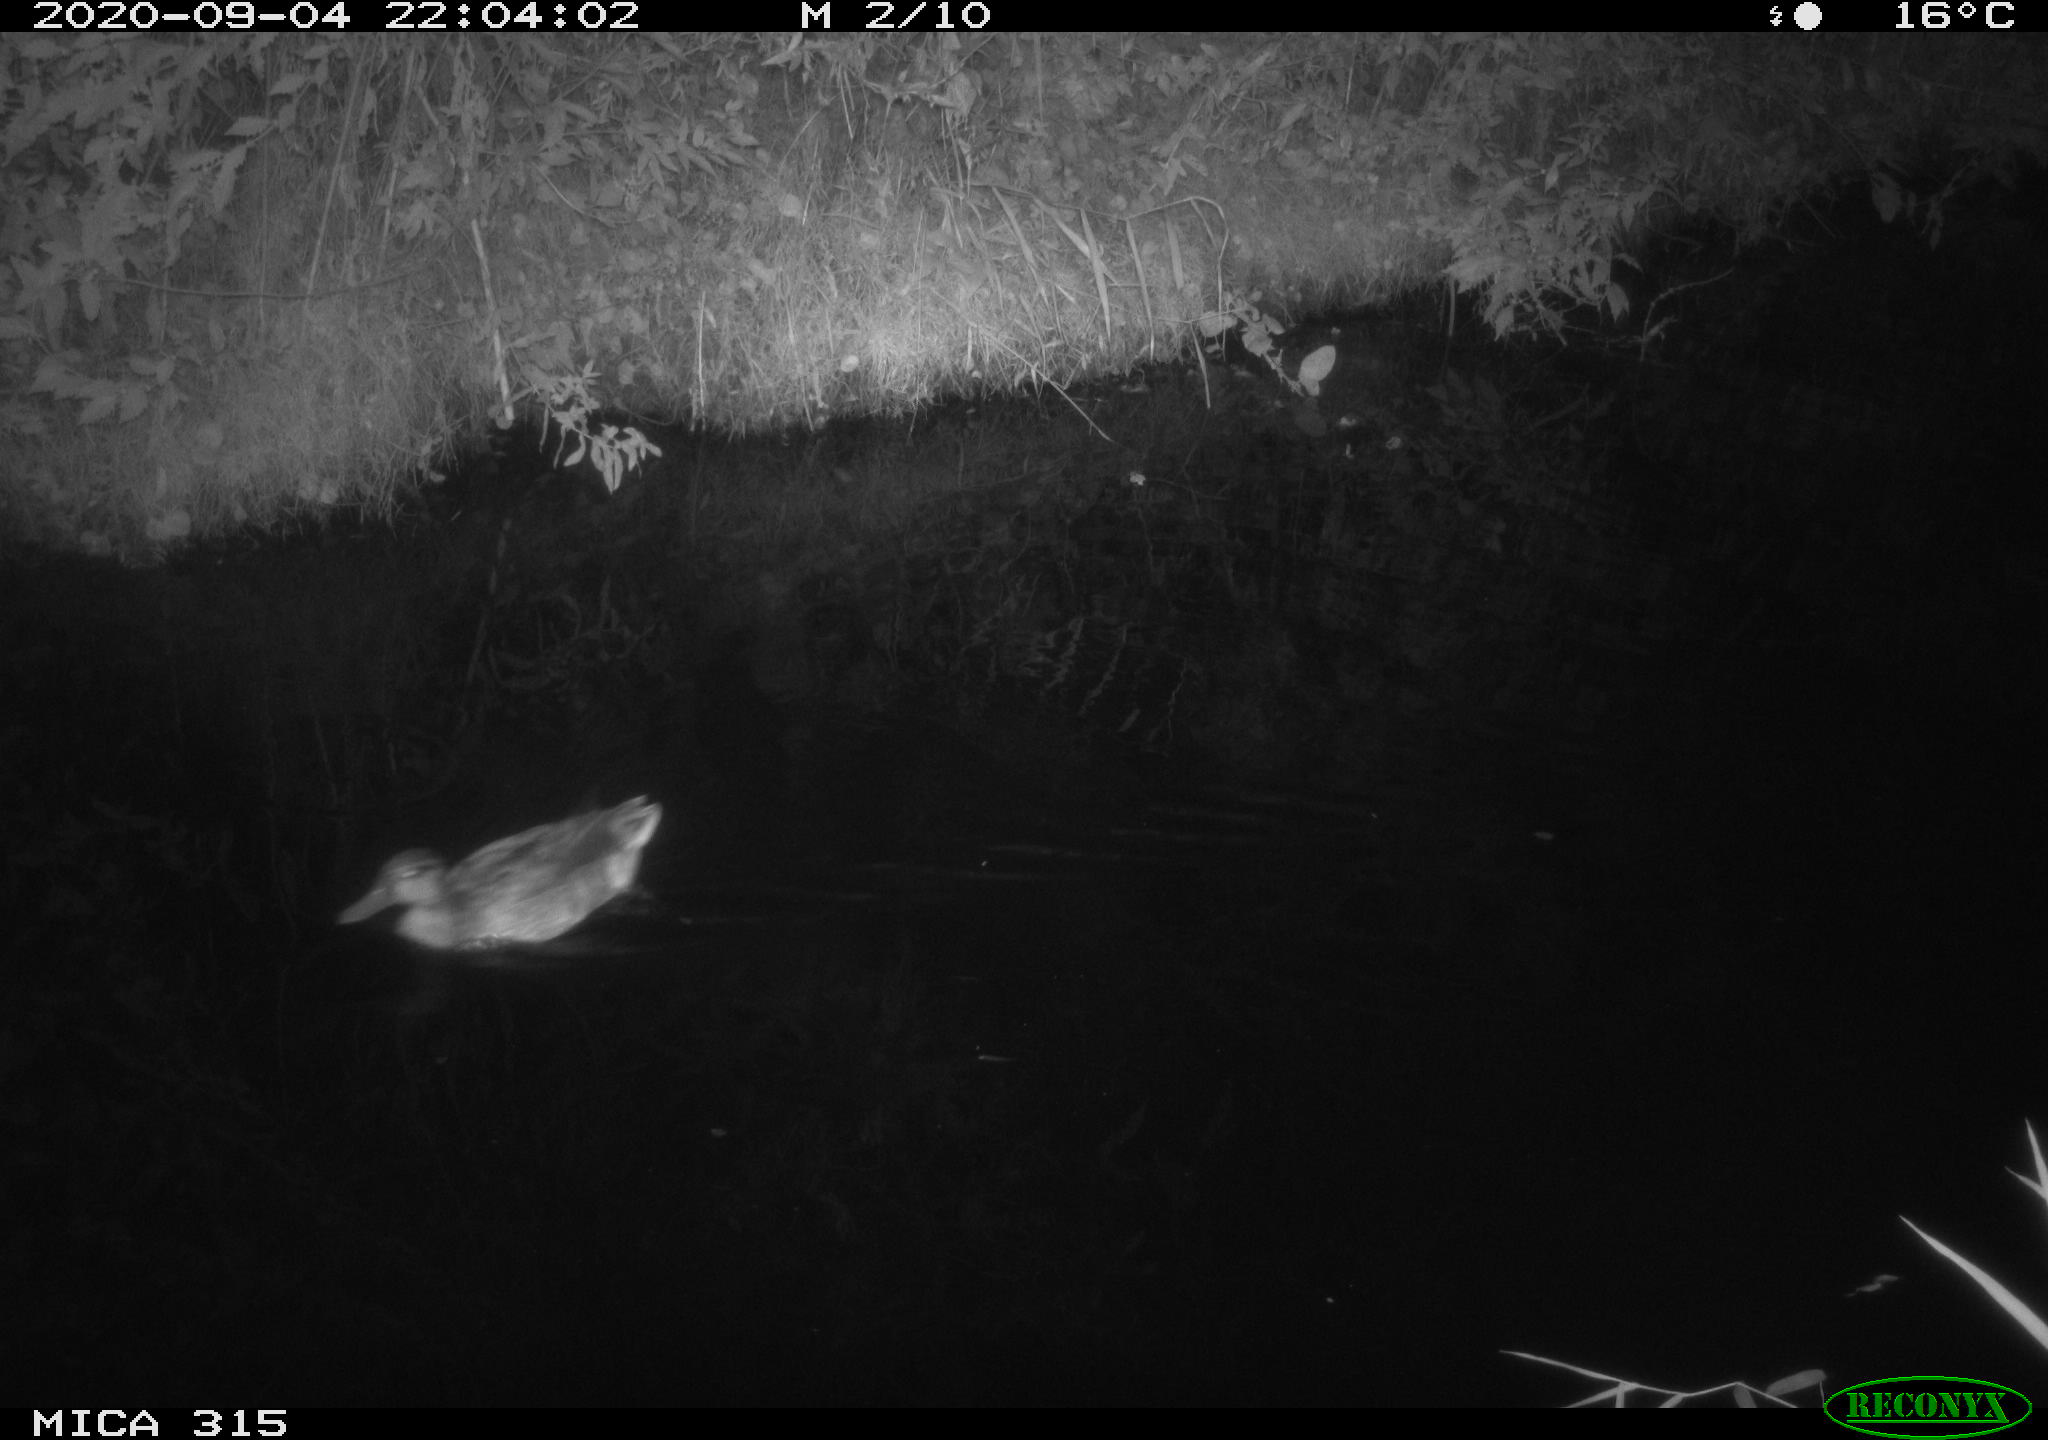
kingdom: Animalia
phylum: Chordata
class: Aves
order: Anseriformes
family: Anatidae
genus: Anas
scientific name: Anas platyrhynchos
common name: Mallard
